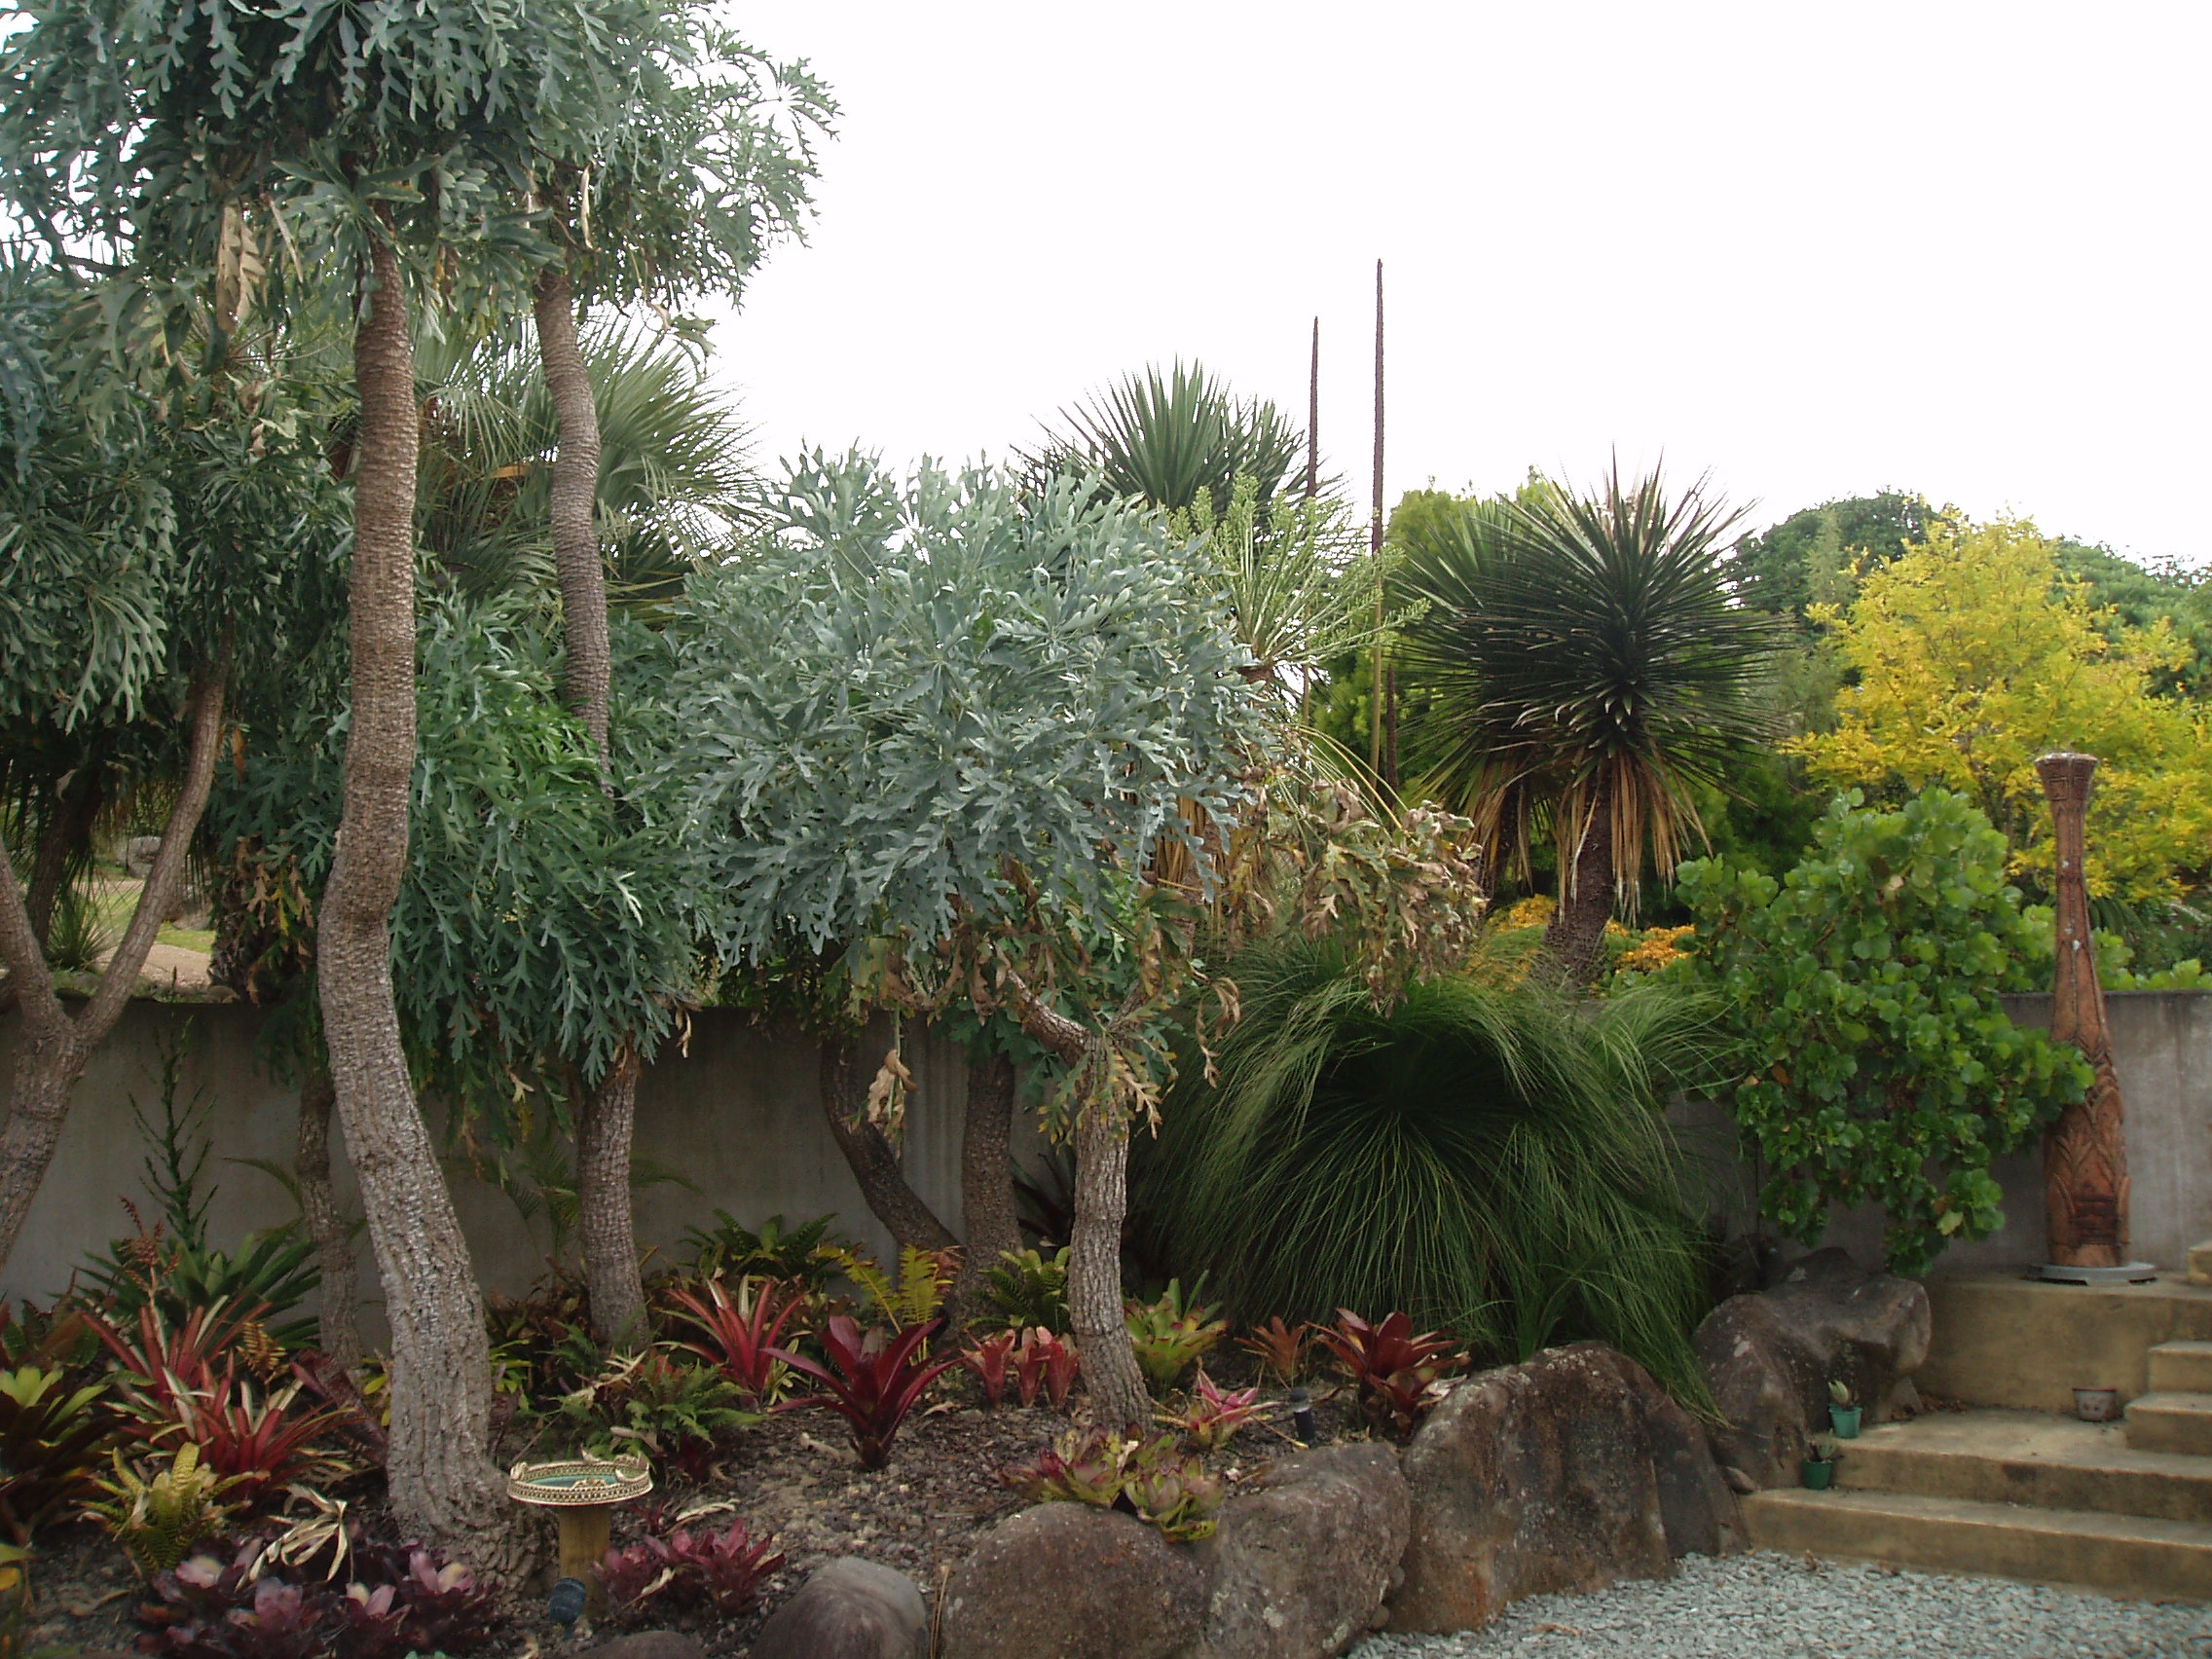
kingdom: Plantae
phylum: Tracheophyta
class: Liliopsida
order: Asparagales
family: Asphodelaceae
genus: Xanthorrhoea
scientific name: Xanthorrhoea johnsonii
